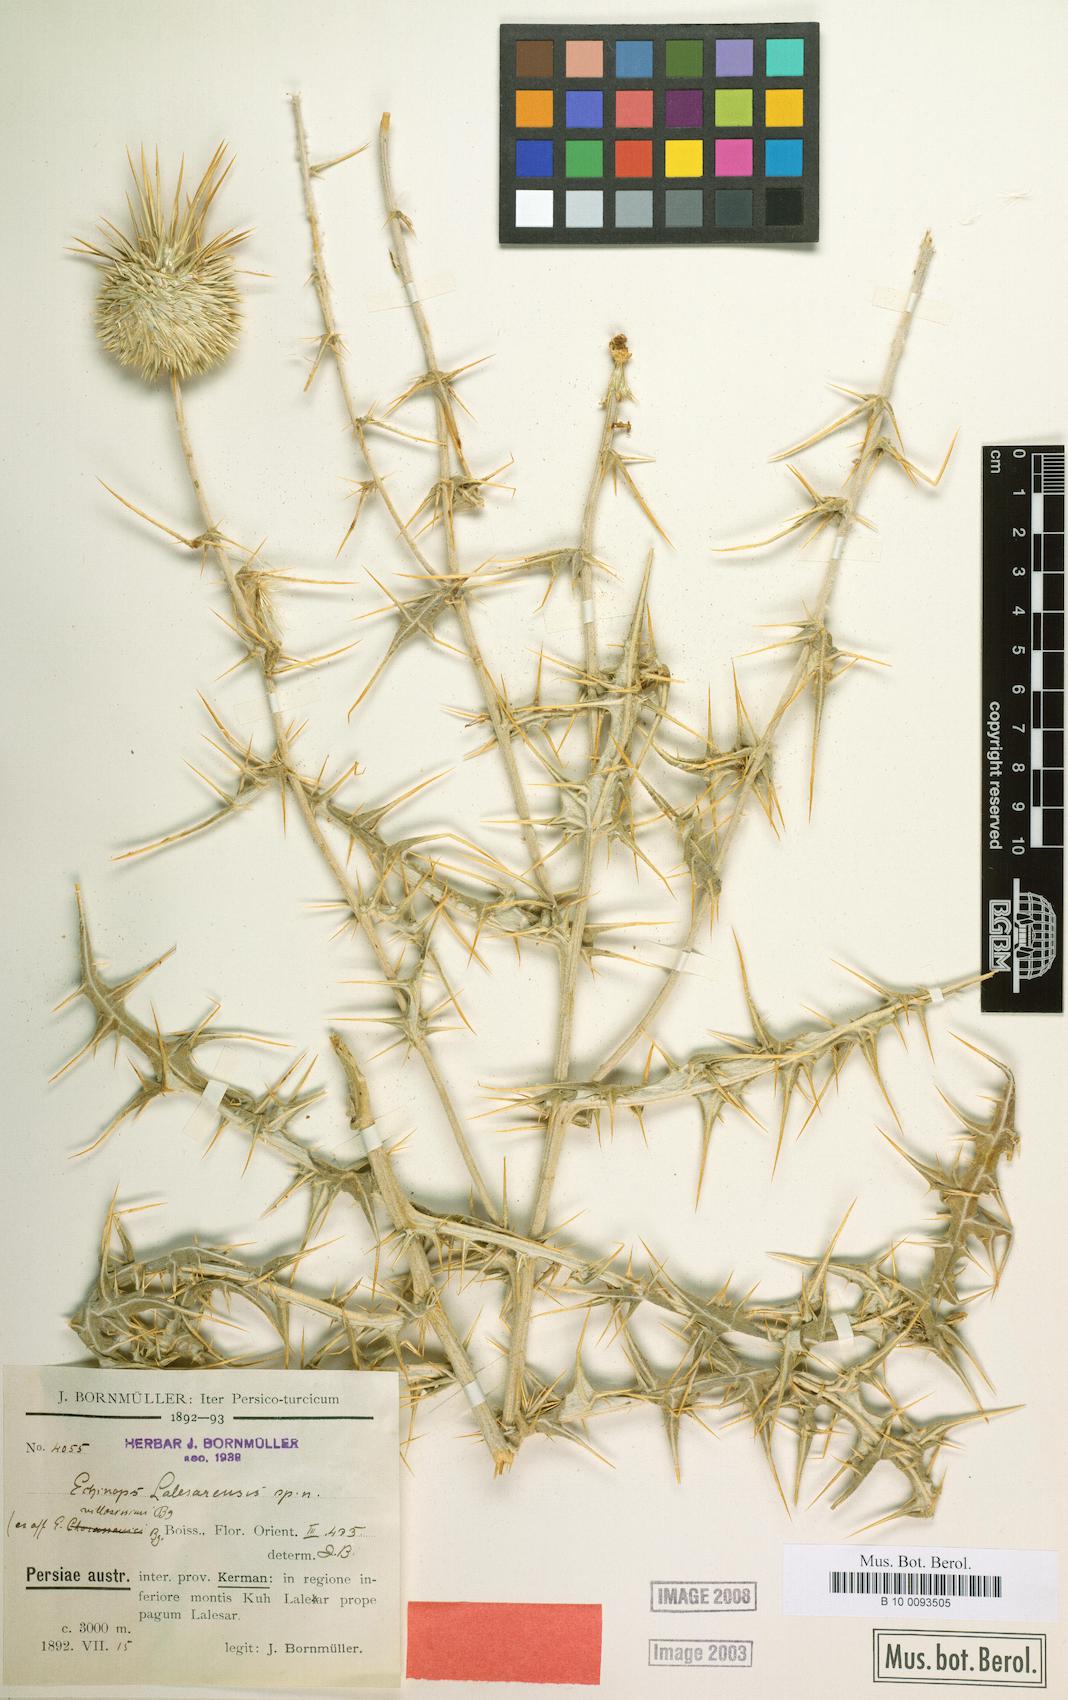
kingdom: Plantae
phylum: Tracheophyta
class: Magnoliopsida
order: Asterales
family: Asteraceae
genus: Echinops
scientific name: Echinops lalesarensis
